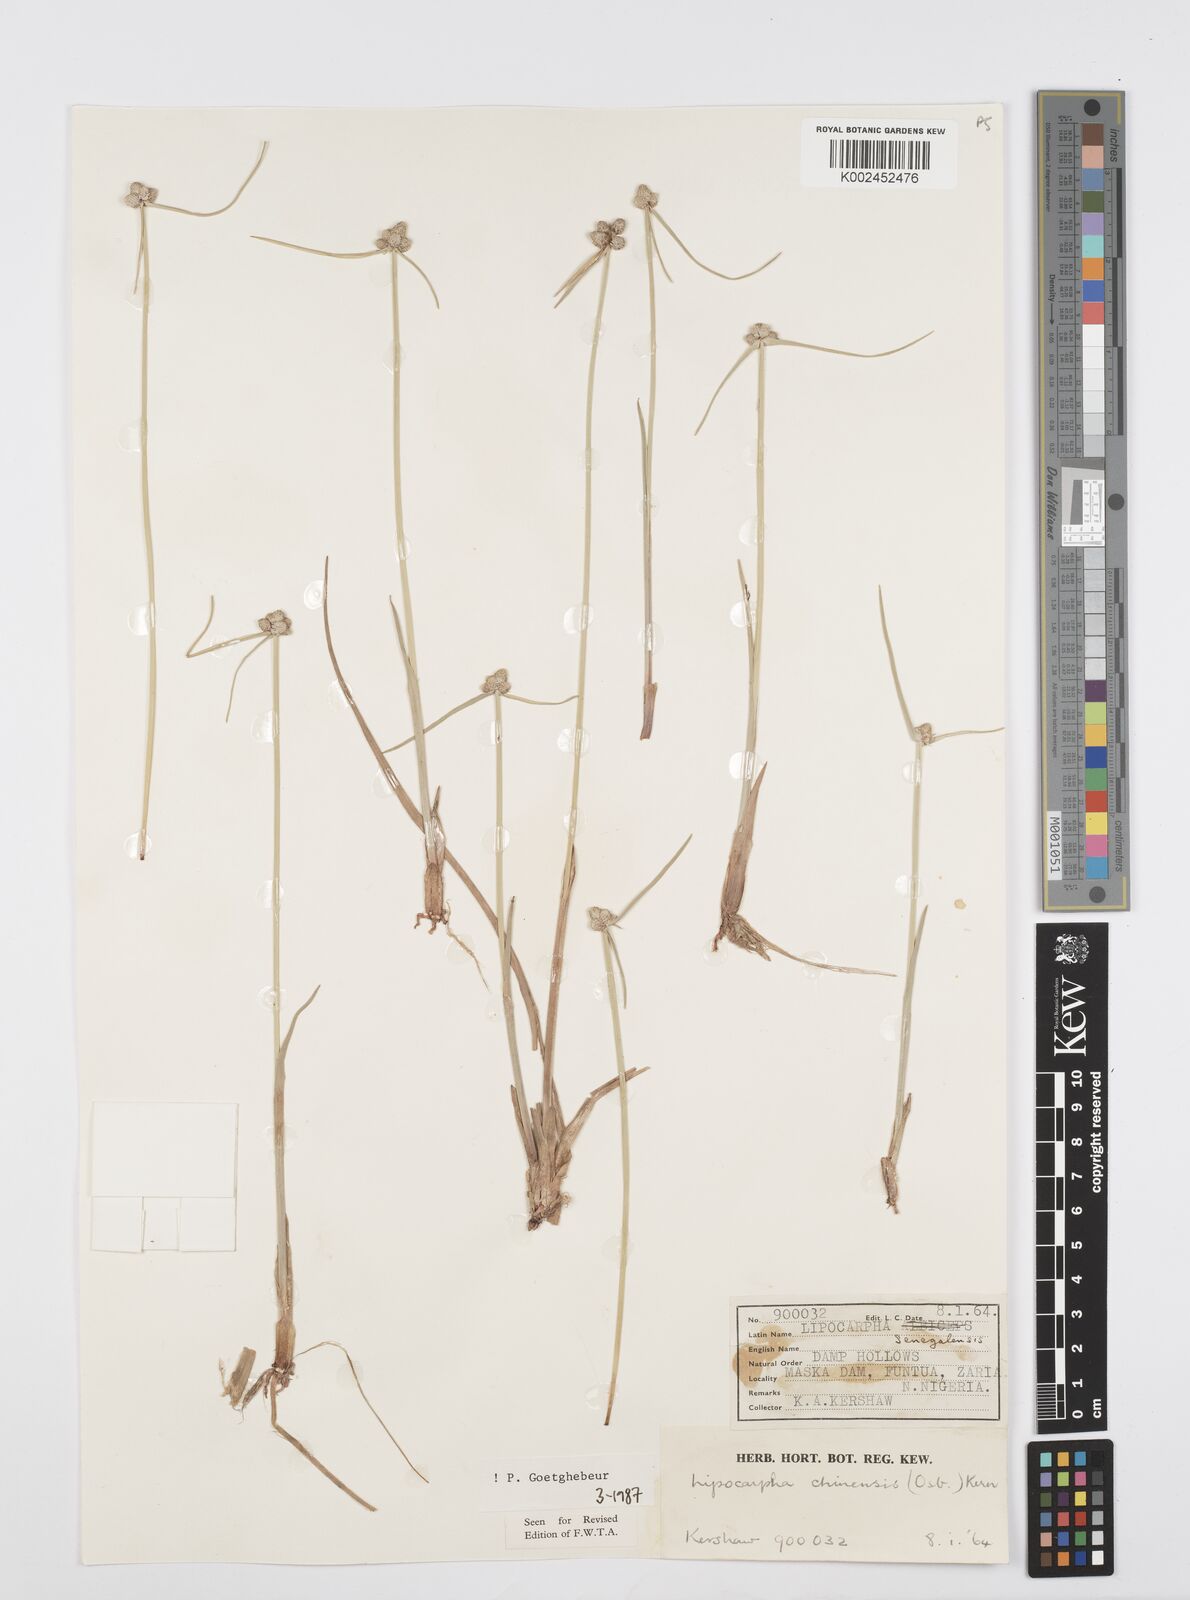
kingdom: Plantae
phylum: Tracheophyta
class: Liliopsida
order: Poales
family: Cyperaceae
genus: Cyperus
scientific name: Cyperus albescens
